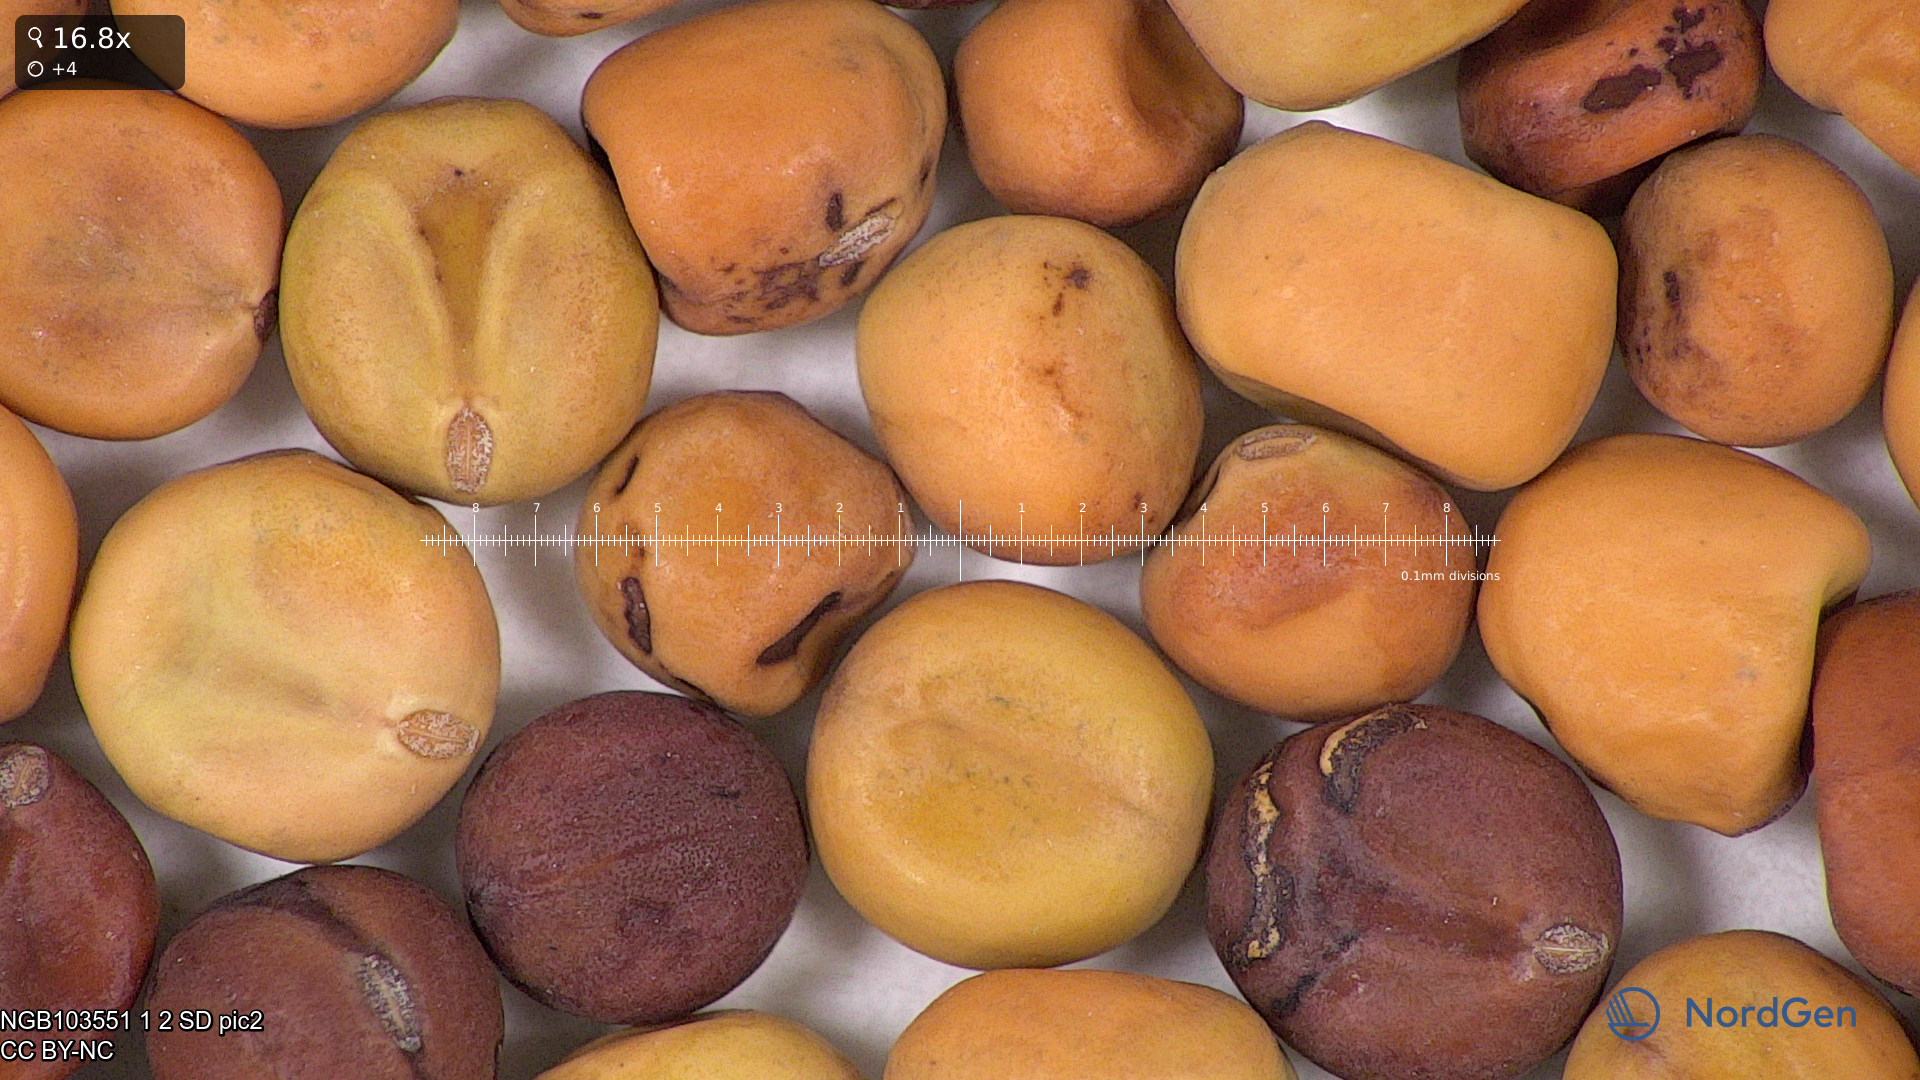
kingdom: Plantae
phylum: Tracheophyta
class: Magnoliopsida
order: Fabales
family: Fabaceae
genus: Lathyrus
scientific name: Lathyrus oleraceus
